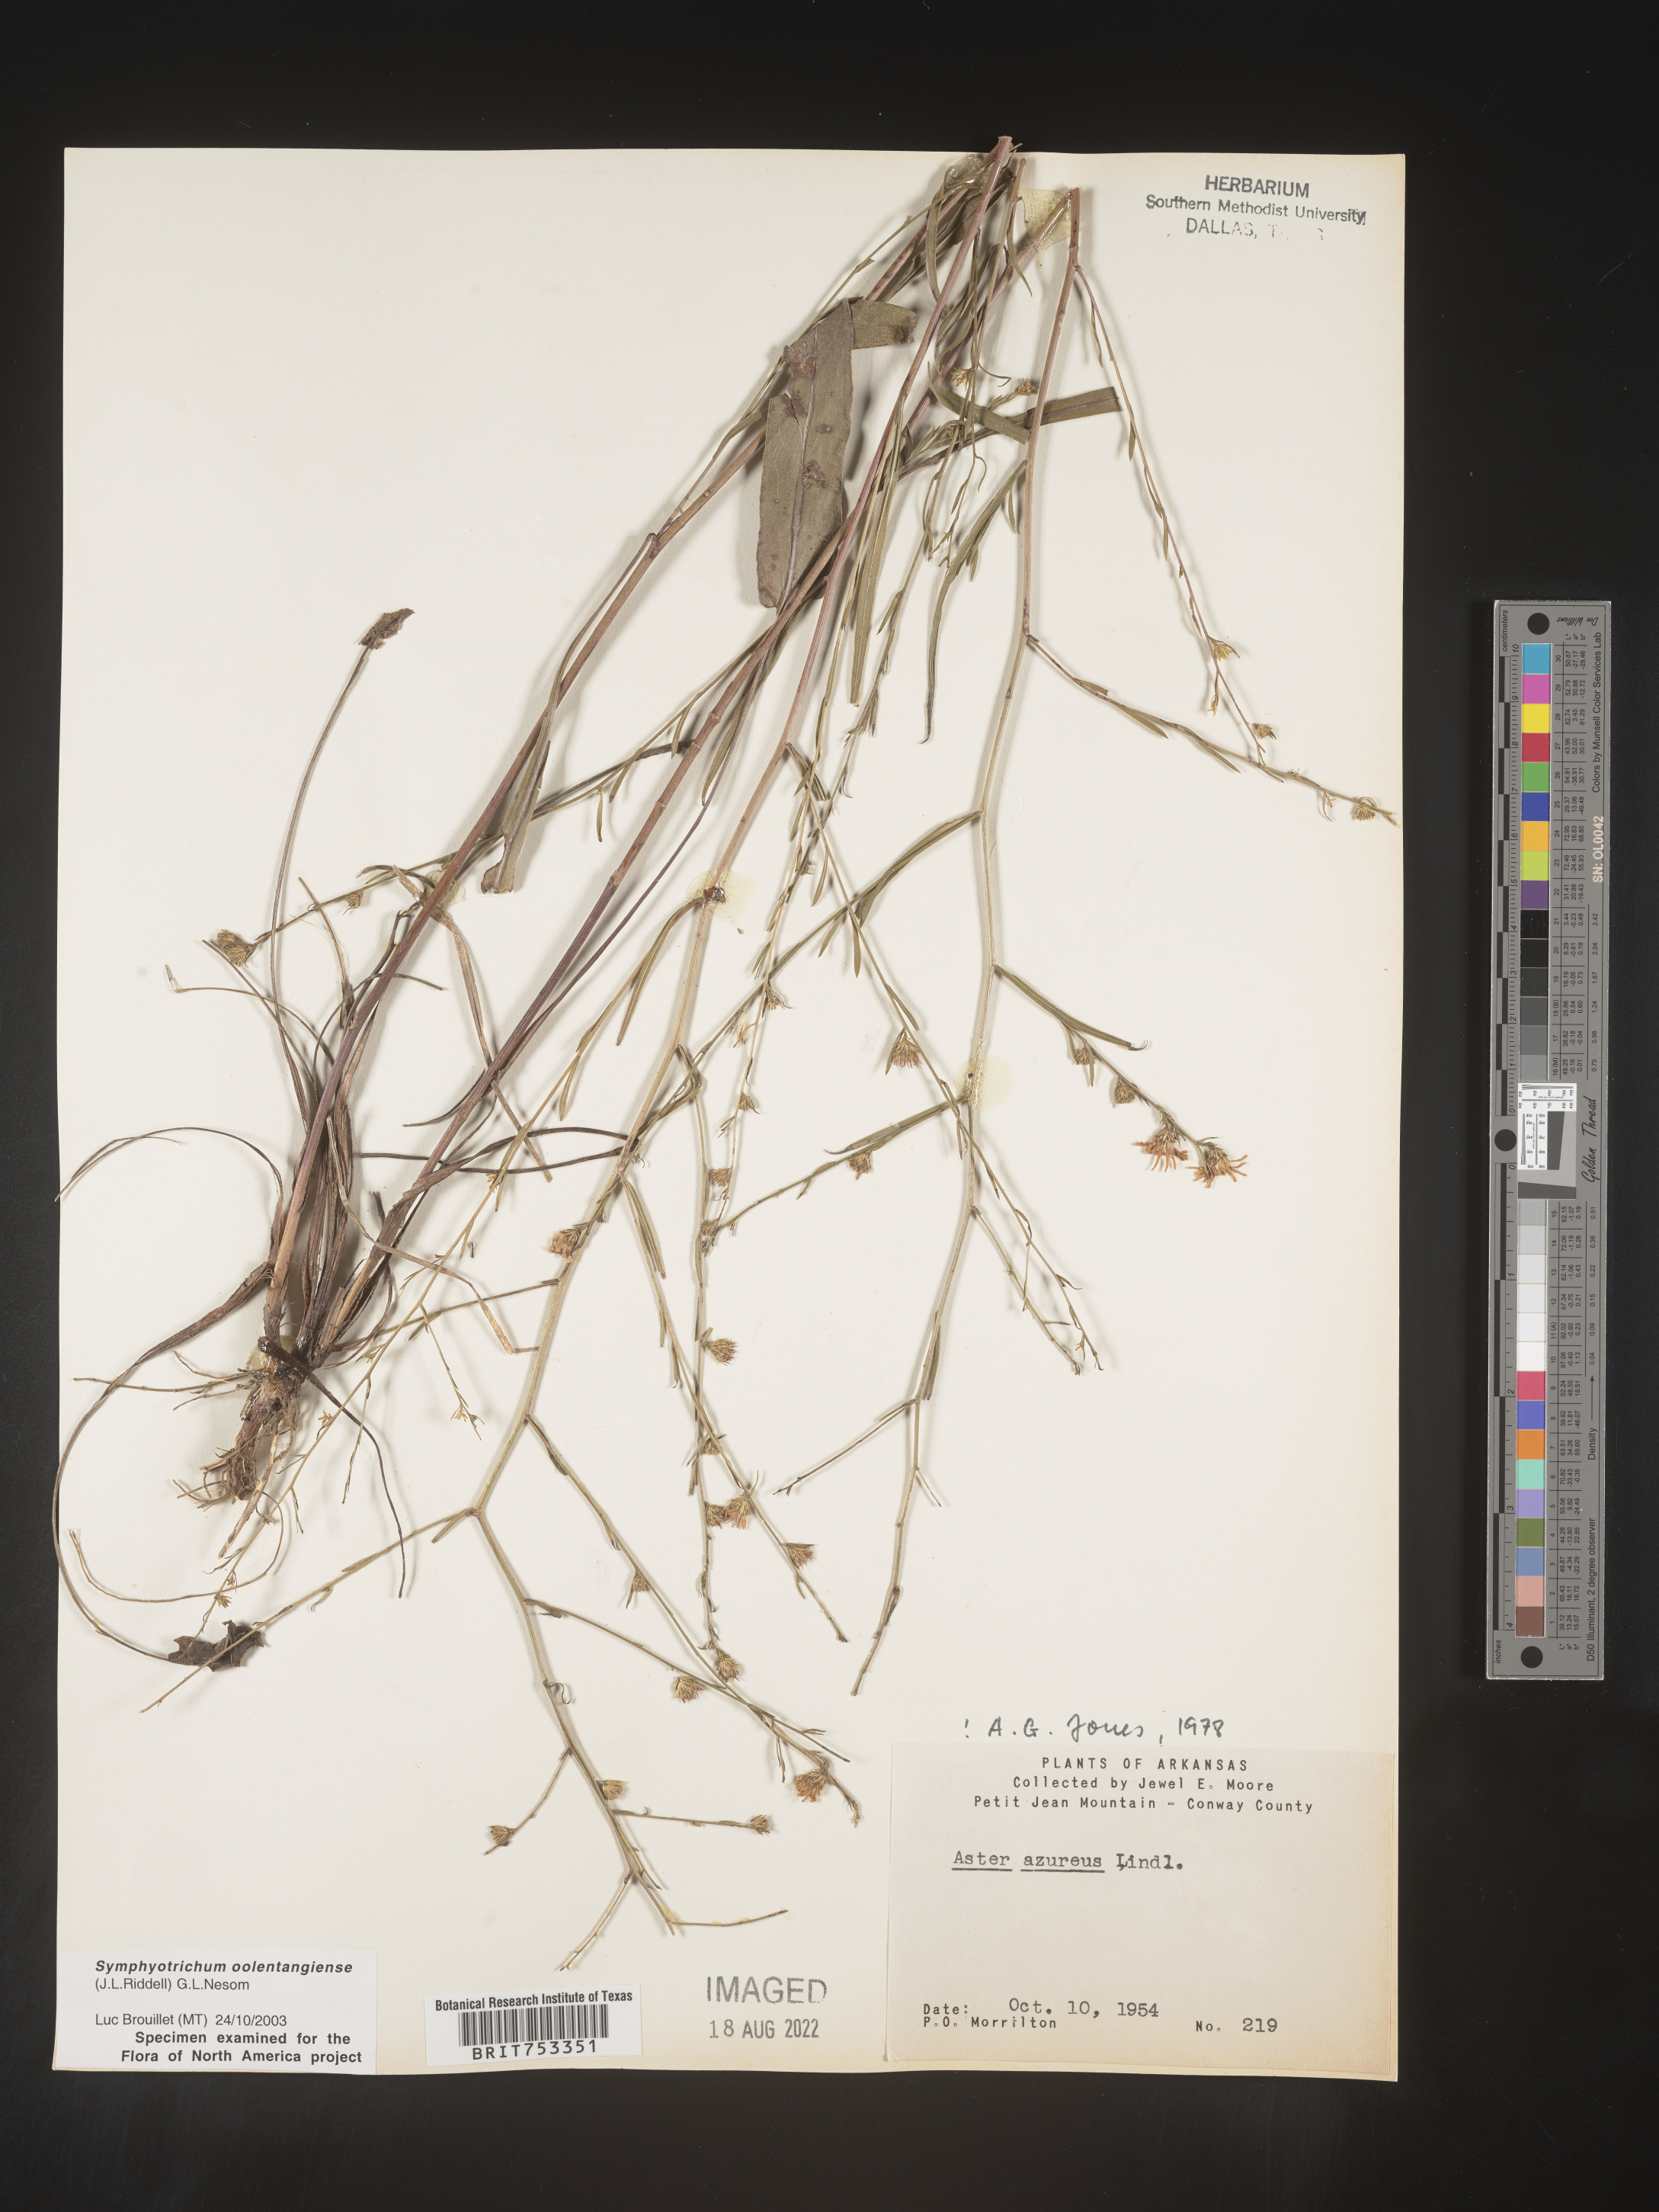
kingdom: Plantae
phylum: Tracheophyta
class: Magnoliopsida
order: Asterales
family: Asteraceae
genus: Symphyotrichum
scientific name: Symphyotrichum oolentangiense
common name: Azure aster
